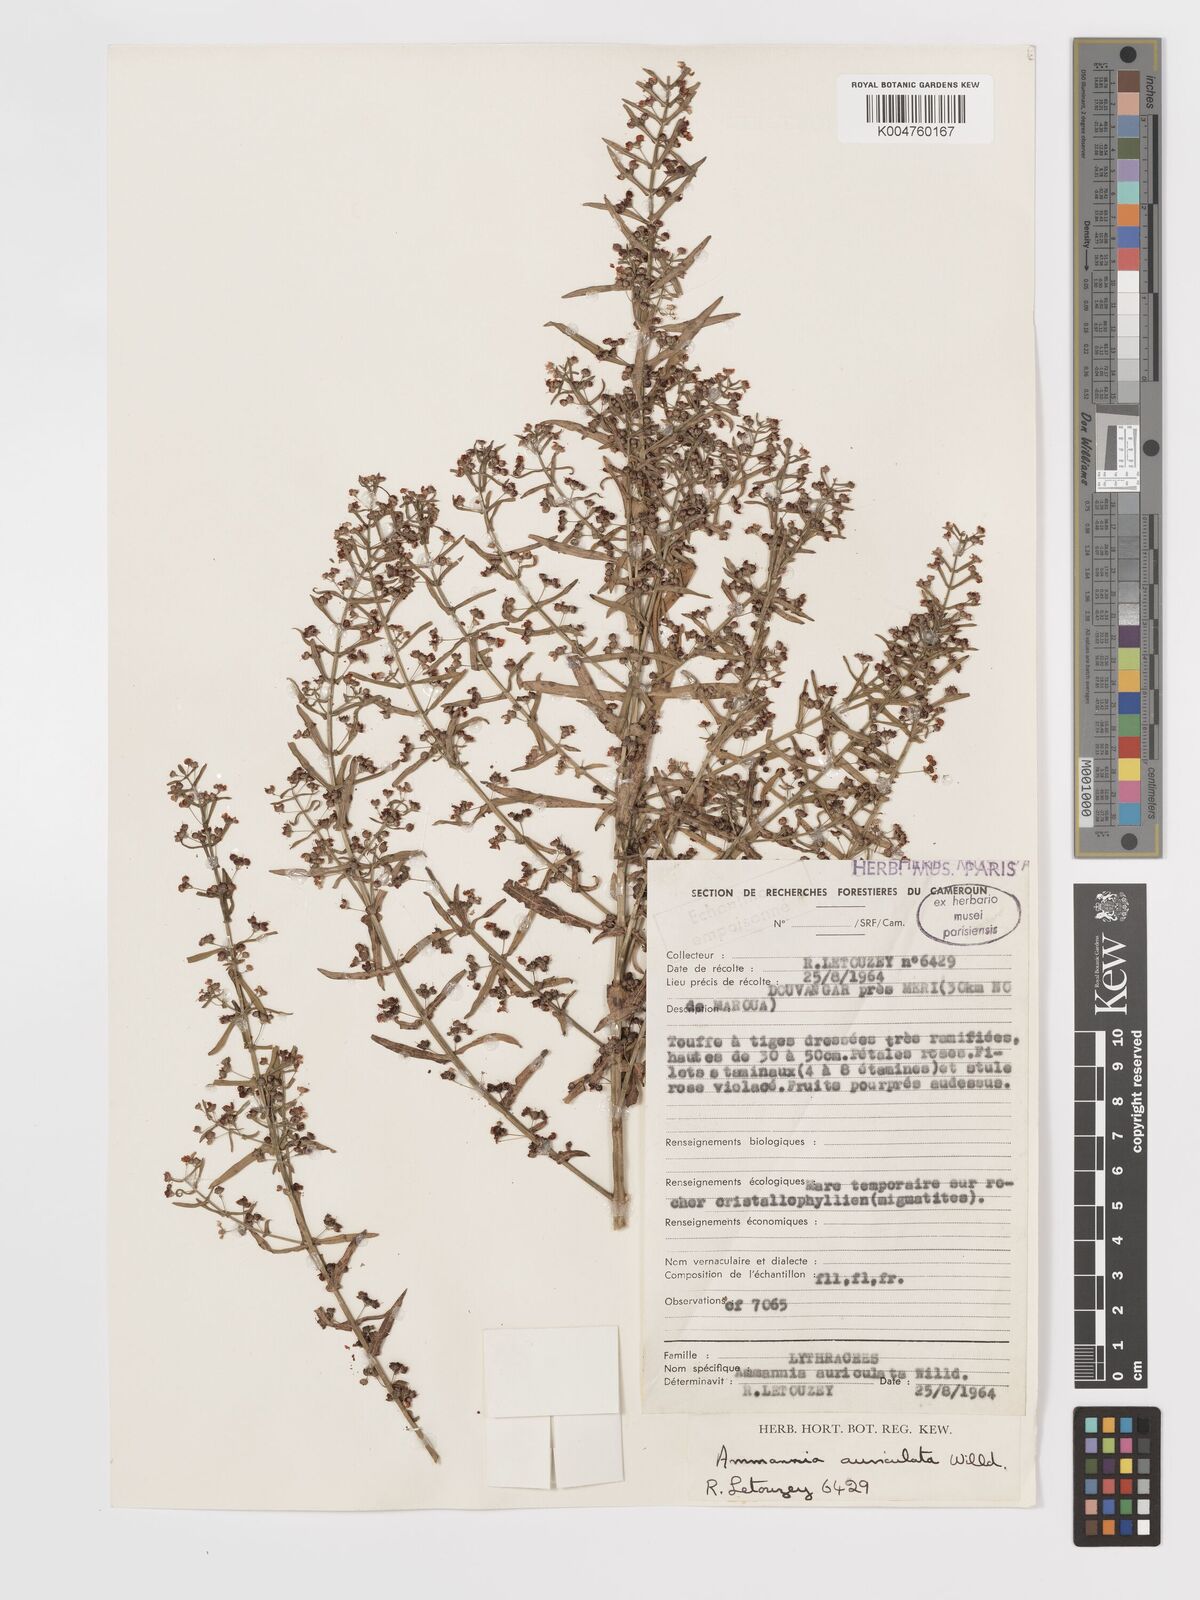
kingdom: Plantae
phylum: Tracheophyta
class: Magnoliopsida
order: Myrtales
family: Lythraceae
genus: Ammannia
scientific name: Ammannia auriculata
